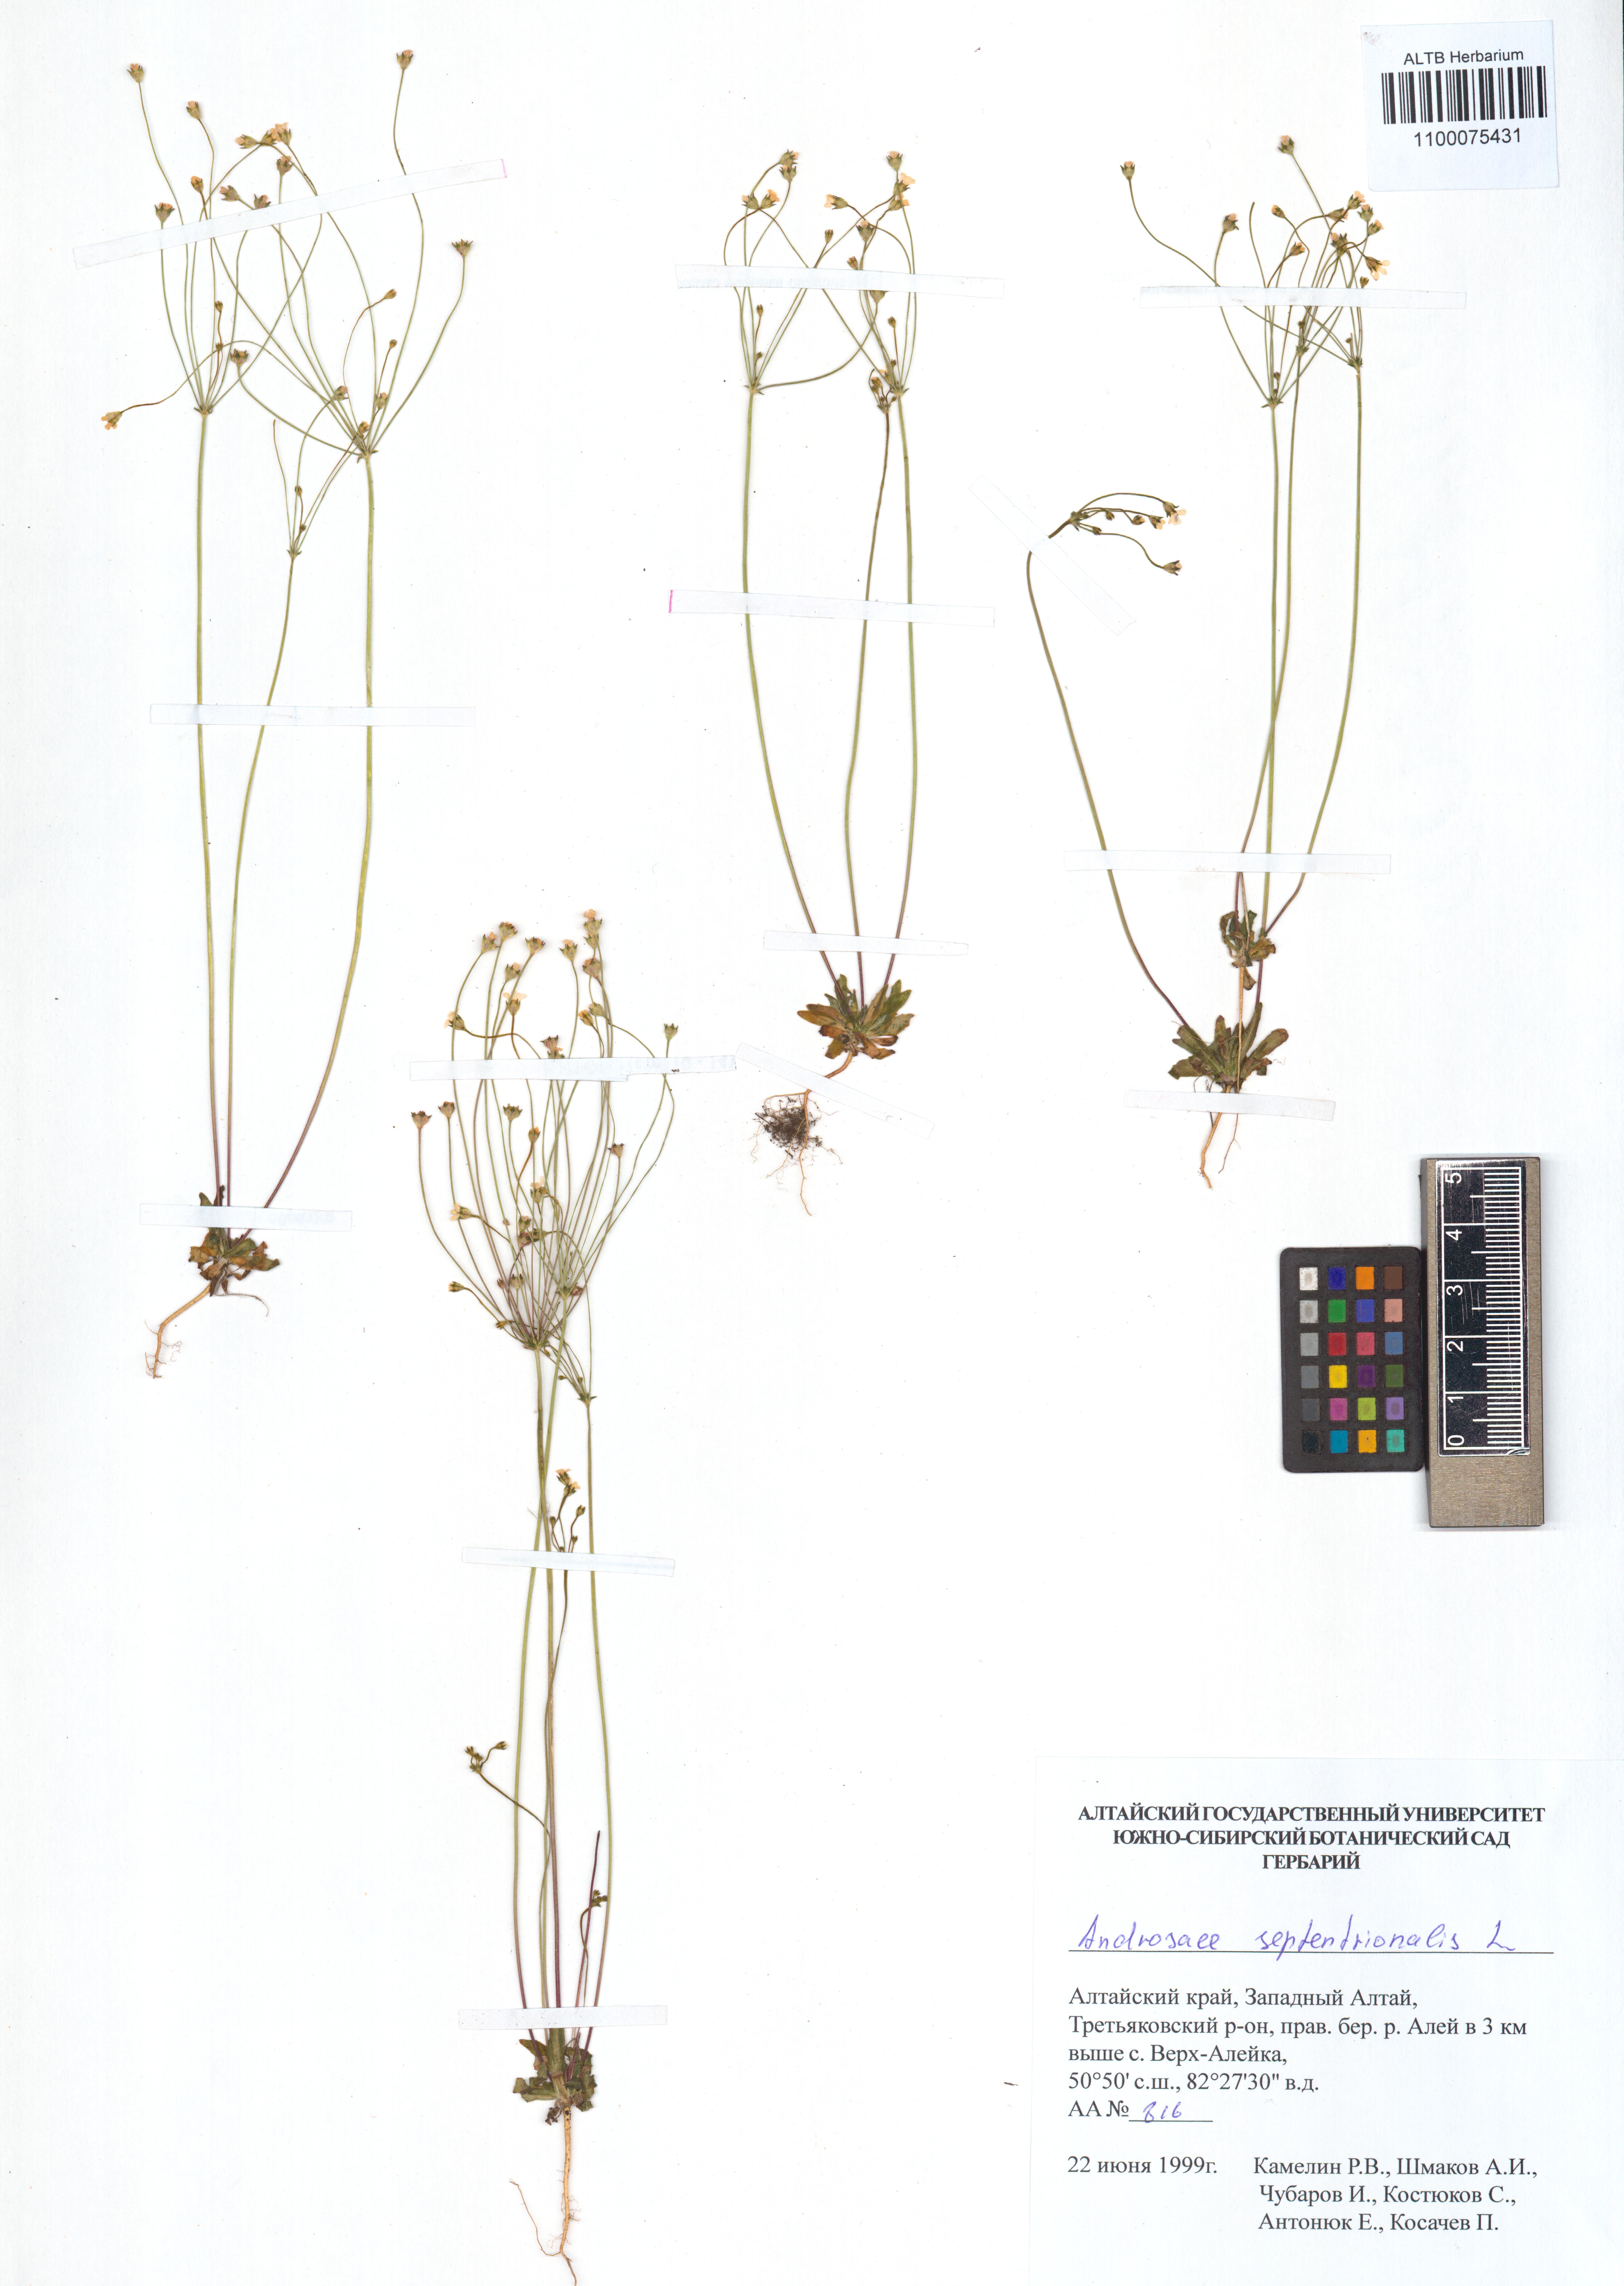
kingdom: Plantae
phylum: Tracheophyta
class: Magnoliopsida
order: Ericales
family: Primulaceae
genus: Androsace
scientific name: Androsace septentrionalis
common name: Hairy northern fairy-candelabra
